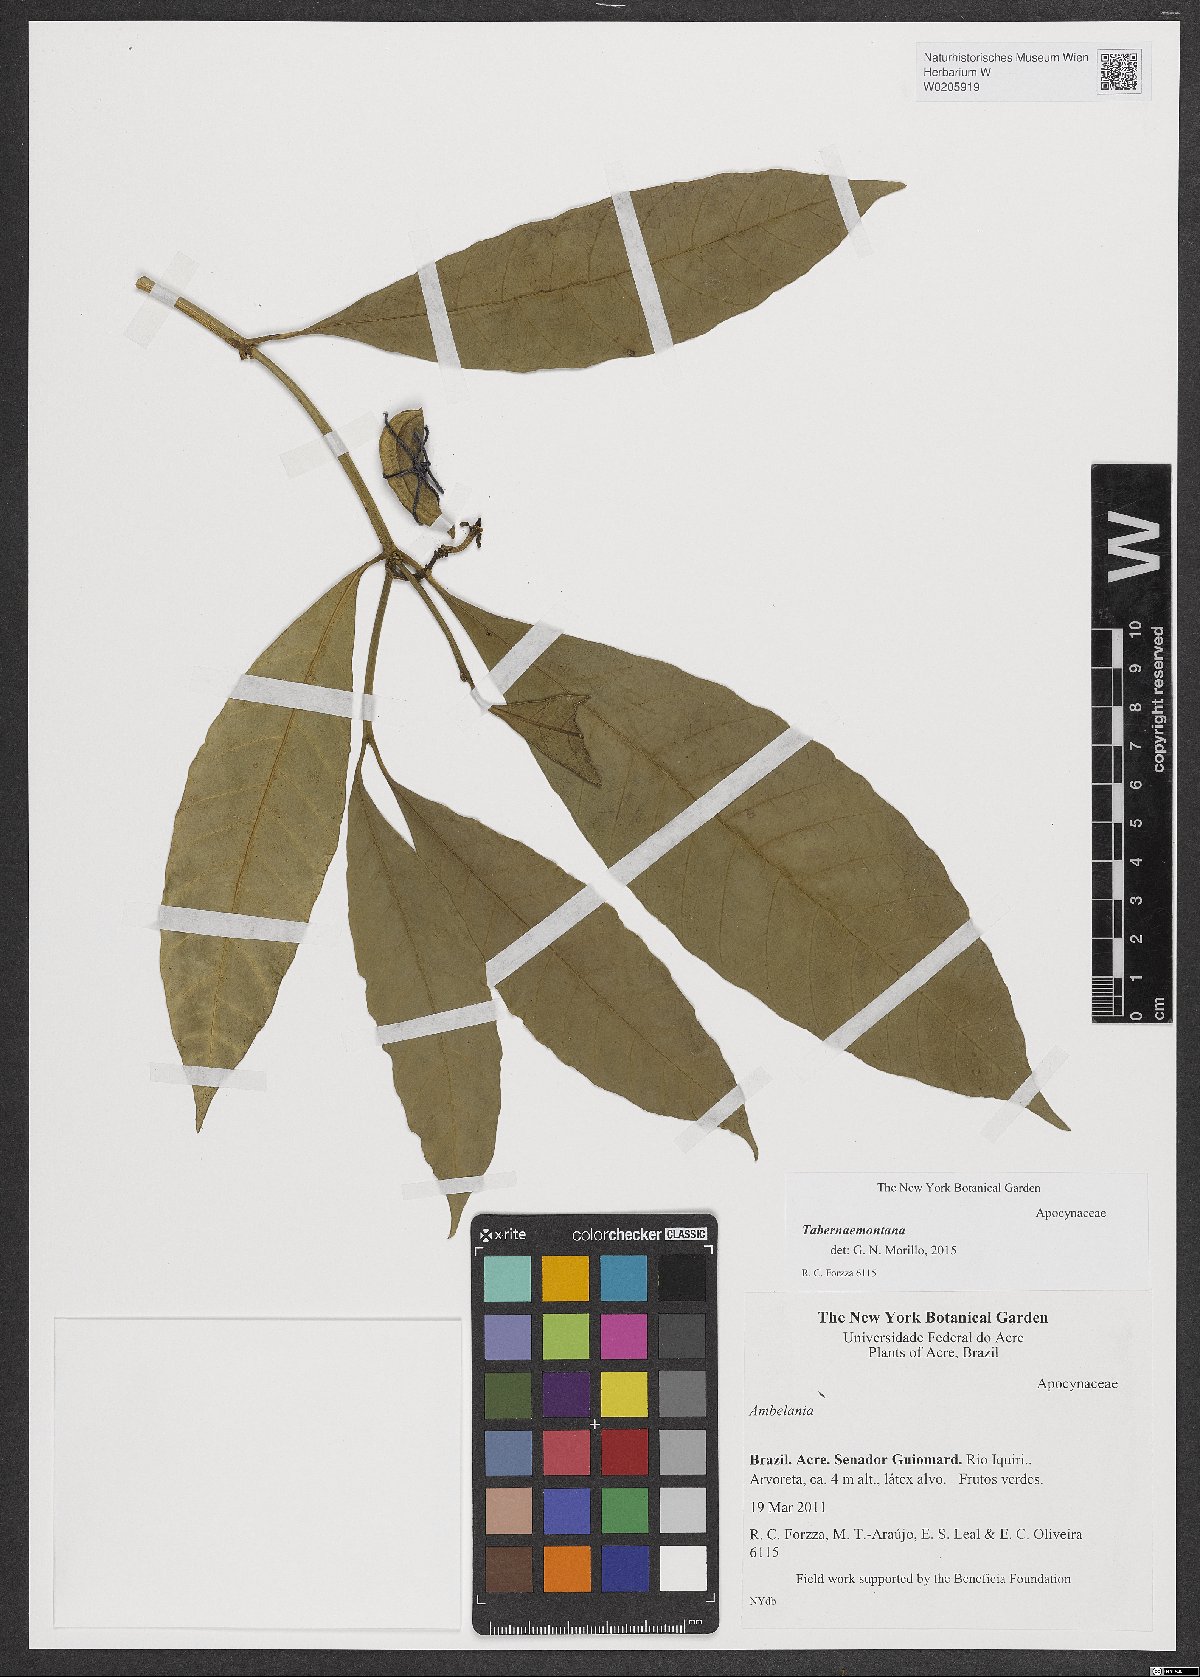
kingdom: Plantae
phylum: Tracheophyta
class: Magnoliopsida
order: Gentianales
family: Apocynaceae
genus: Tabernaemontana
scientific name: Tabernaemontana
